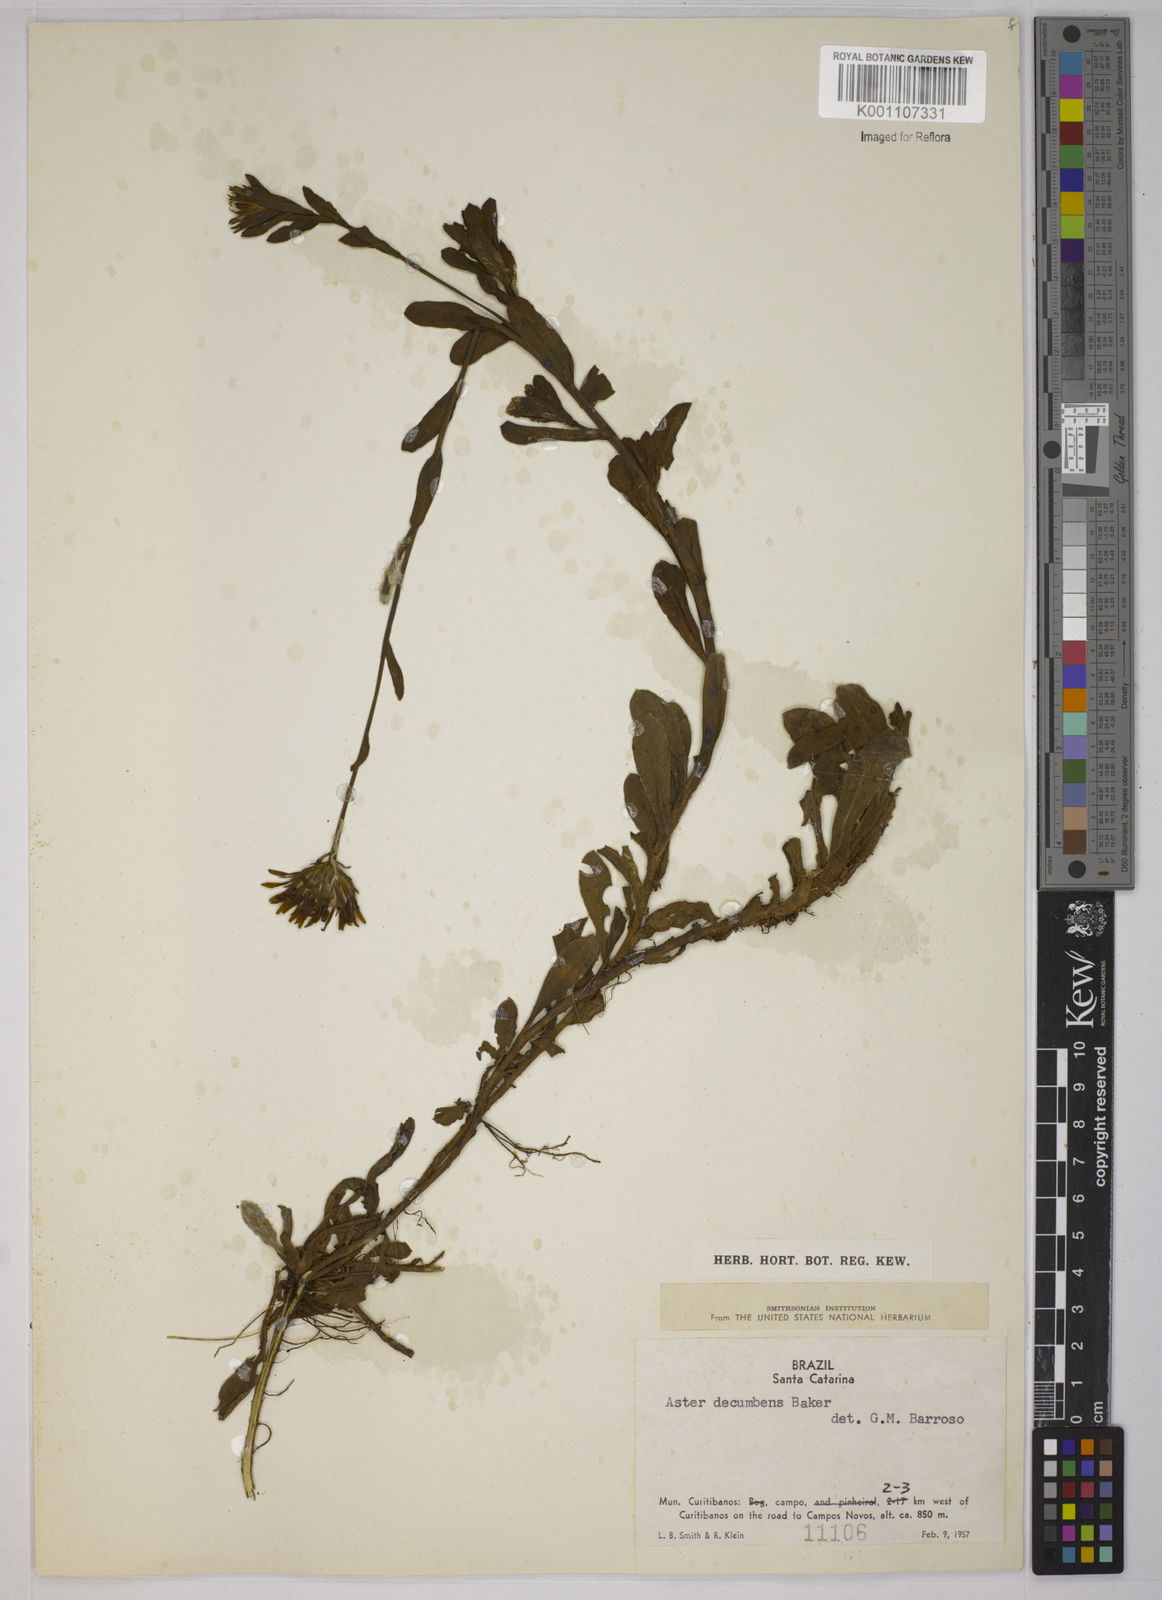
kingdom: Plantae
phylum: Tracheophyta
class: Magnoliopsida
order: Asterales
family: Asteraceae
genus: Noticastrum
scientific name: Noticastrum decumbens
